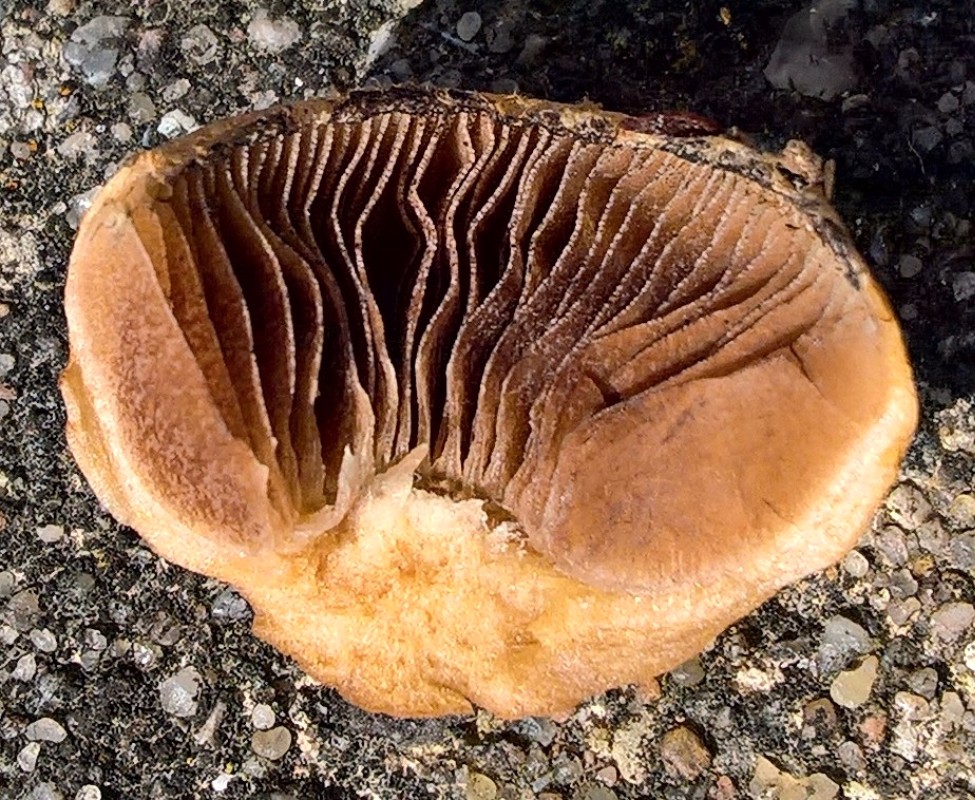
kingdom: Fungi
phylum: Basidiomycota
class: Agaricomycetes
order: Agaricales
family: Psathyrellaceae
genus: Lacrymaria
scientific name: Lacrymaria lacrymabunda
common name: grædende mørkhat
